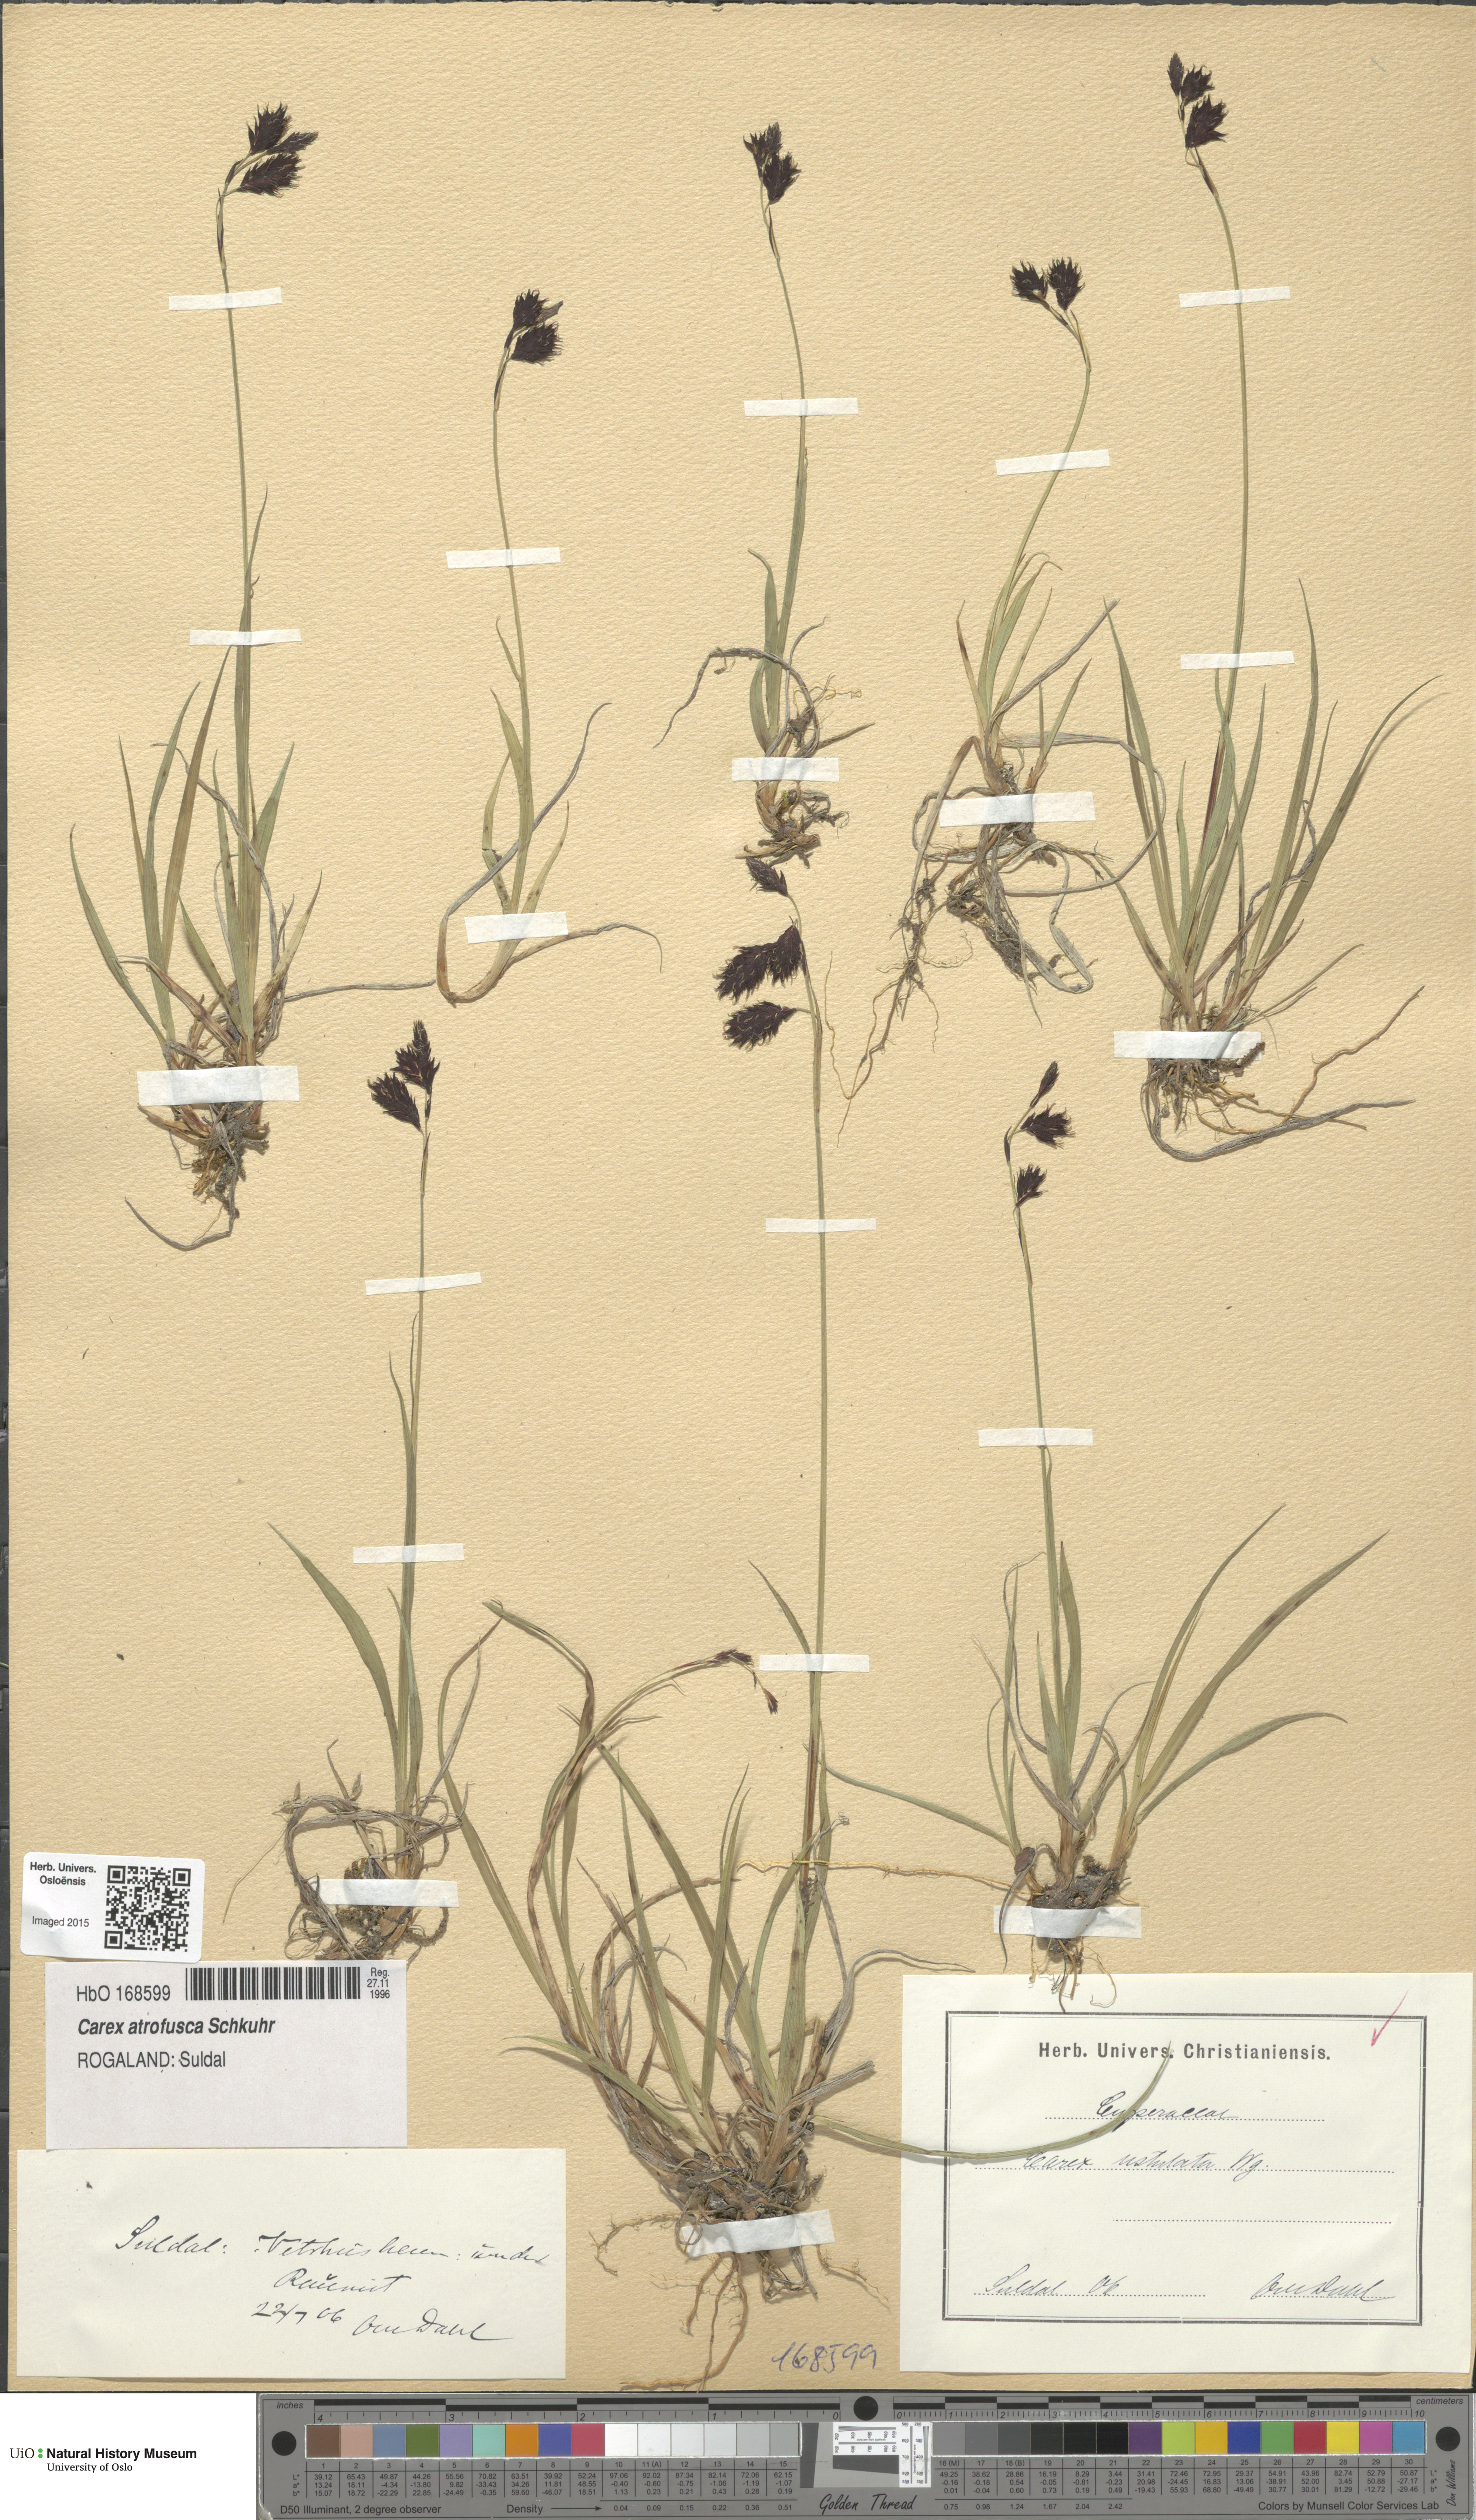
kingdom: Plantae
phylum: Tracheophyta
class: Liliopsida
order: Poales
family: Cyperaceae
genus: Carex
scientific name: Carex atrofusca
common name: Scorched alpine-sedge
